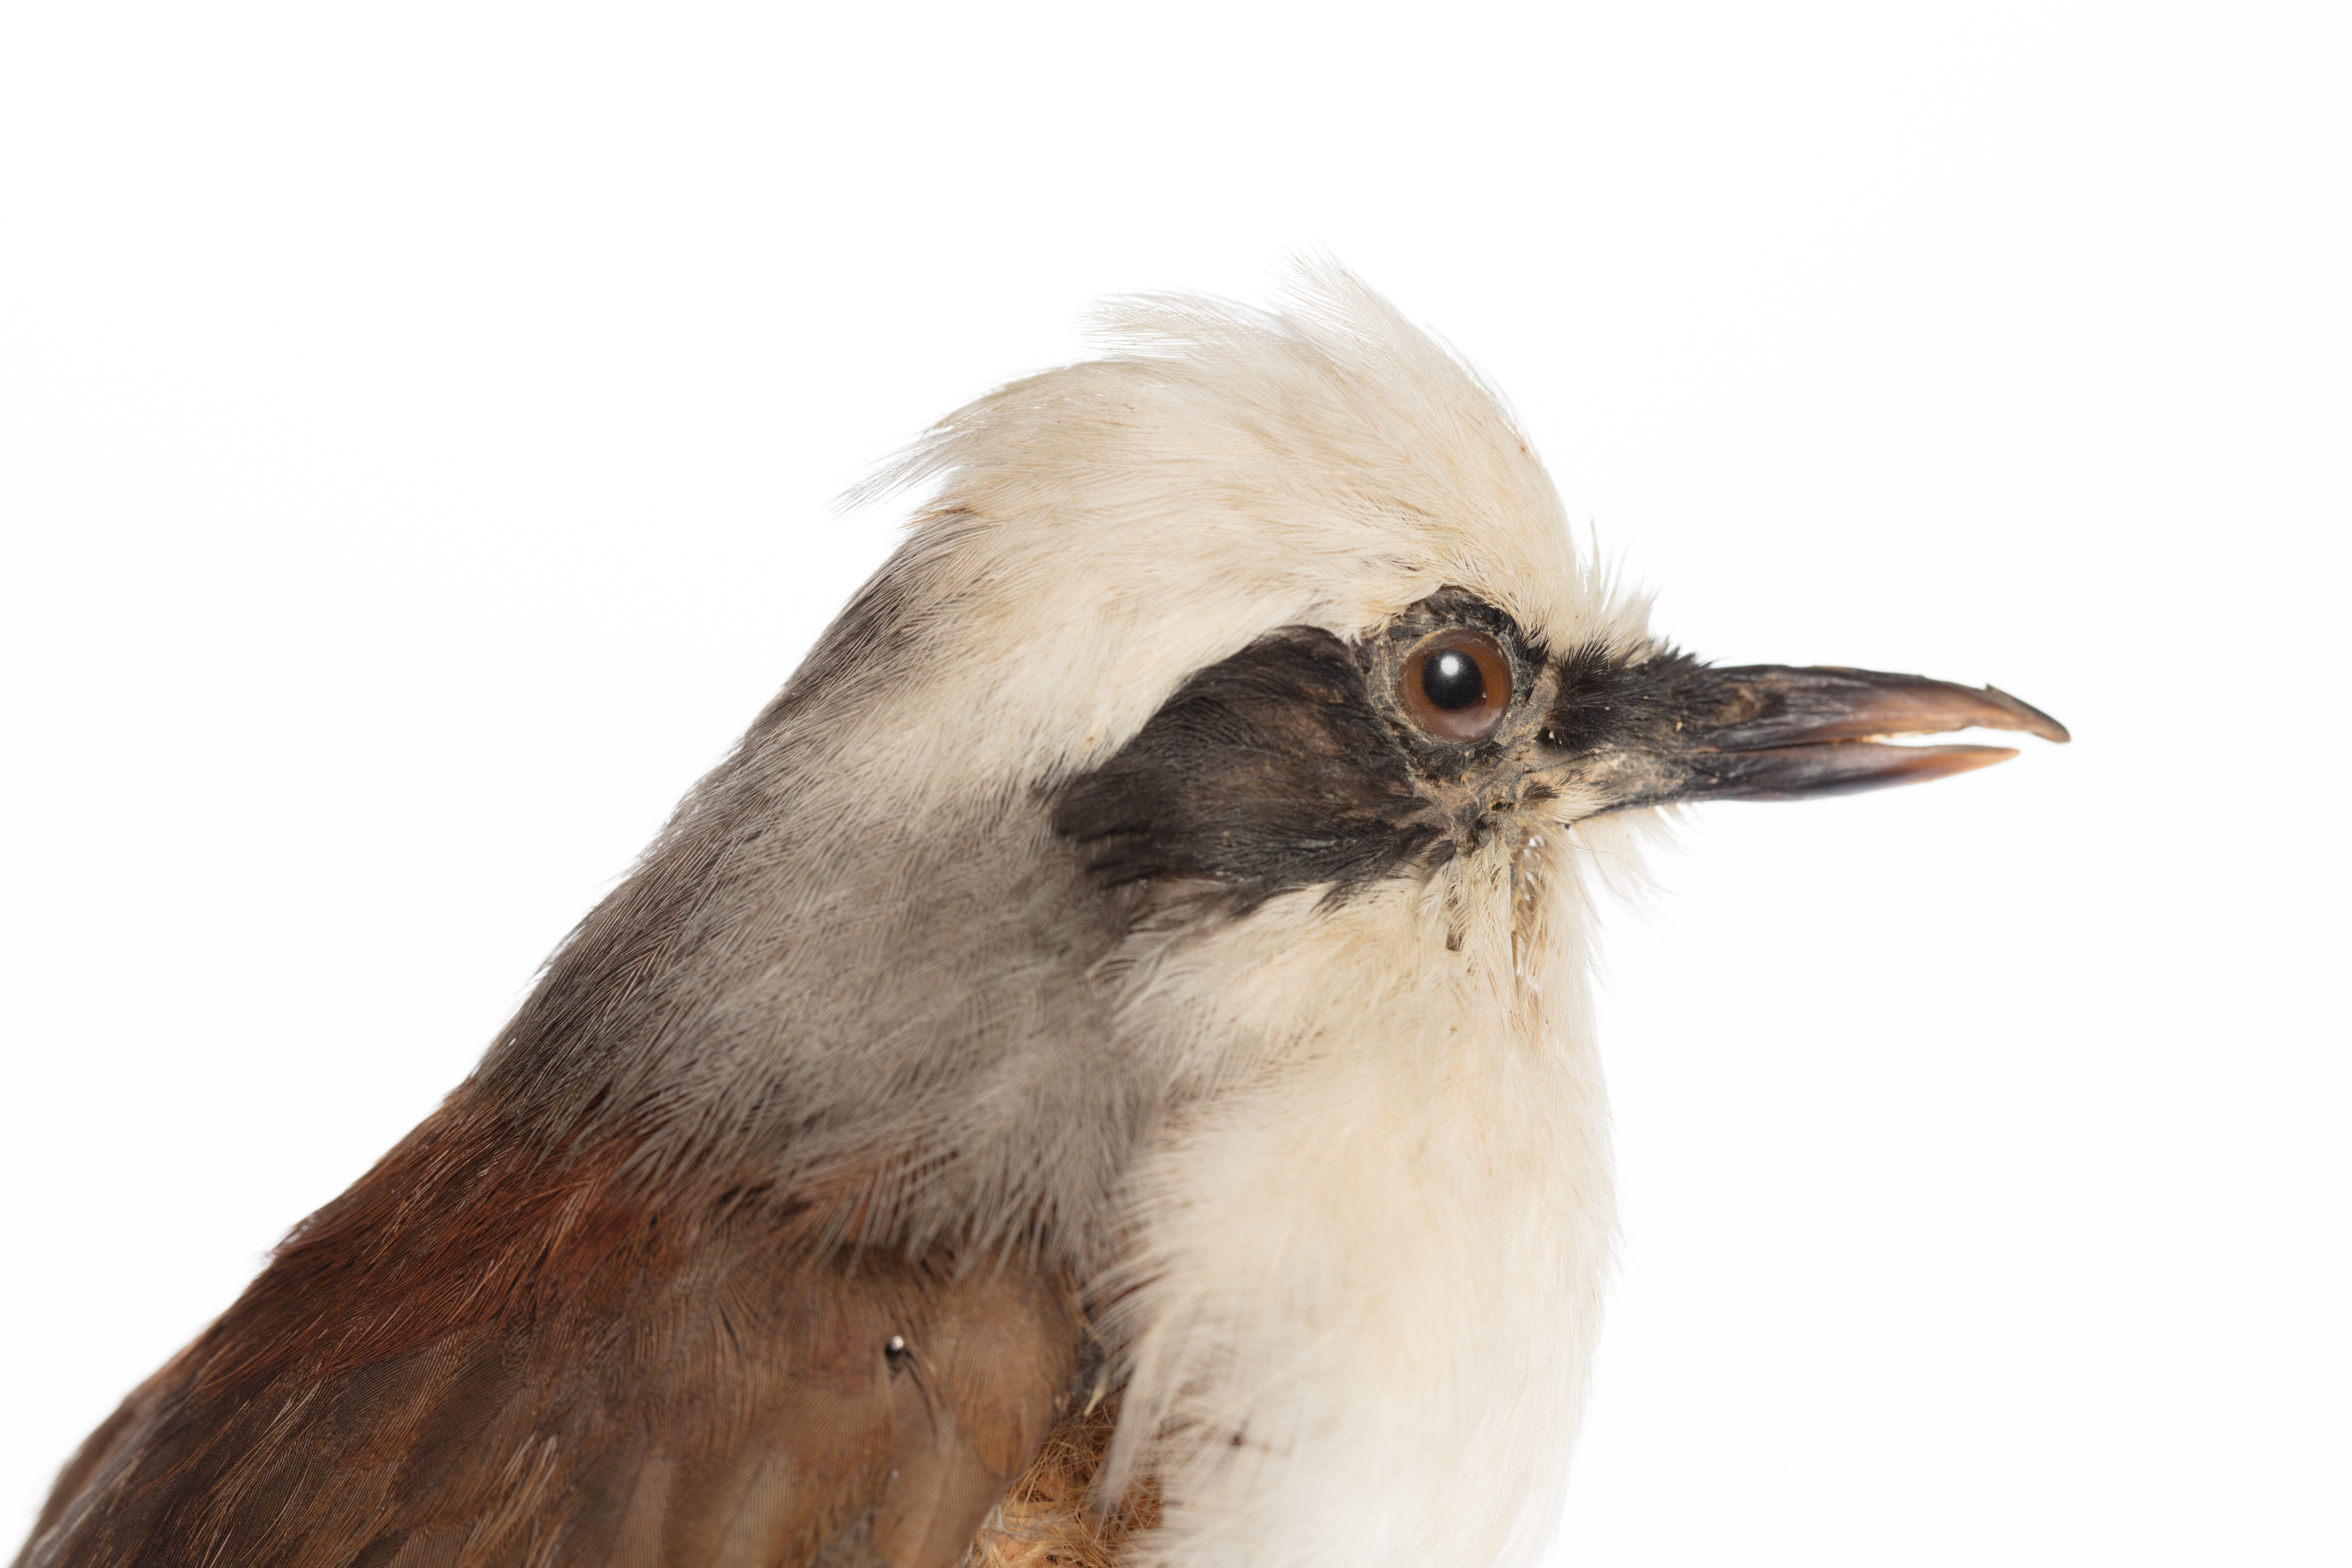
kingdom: Animalia
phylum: Chordata
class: Aves
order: Passeriformes
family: Leiothrichidae
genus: Garrulax
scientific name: Garrulax leucolophus
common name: White-crested laughingthrush
